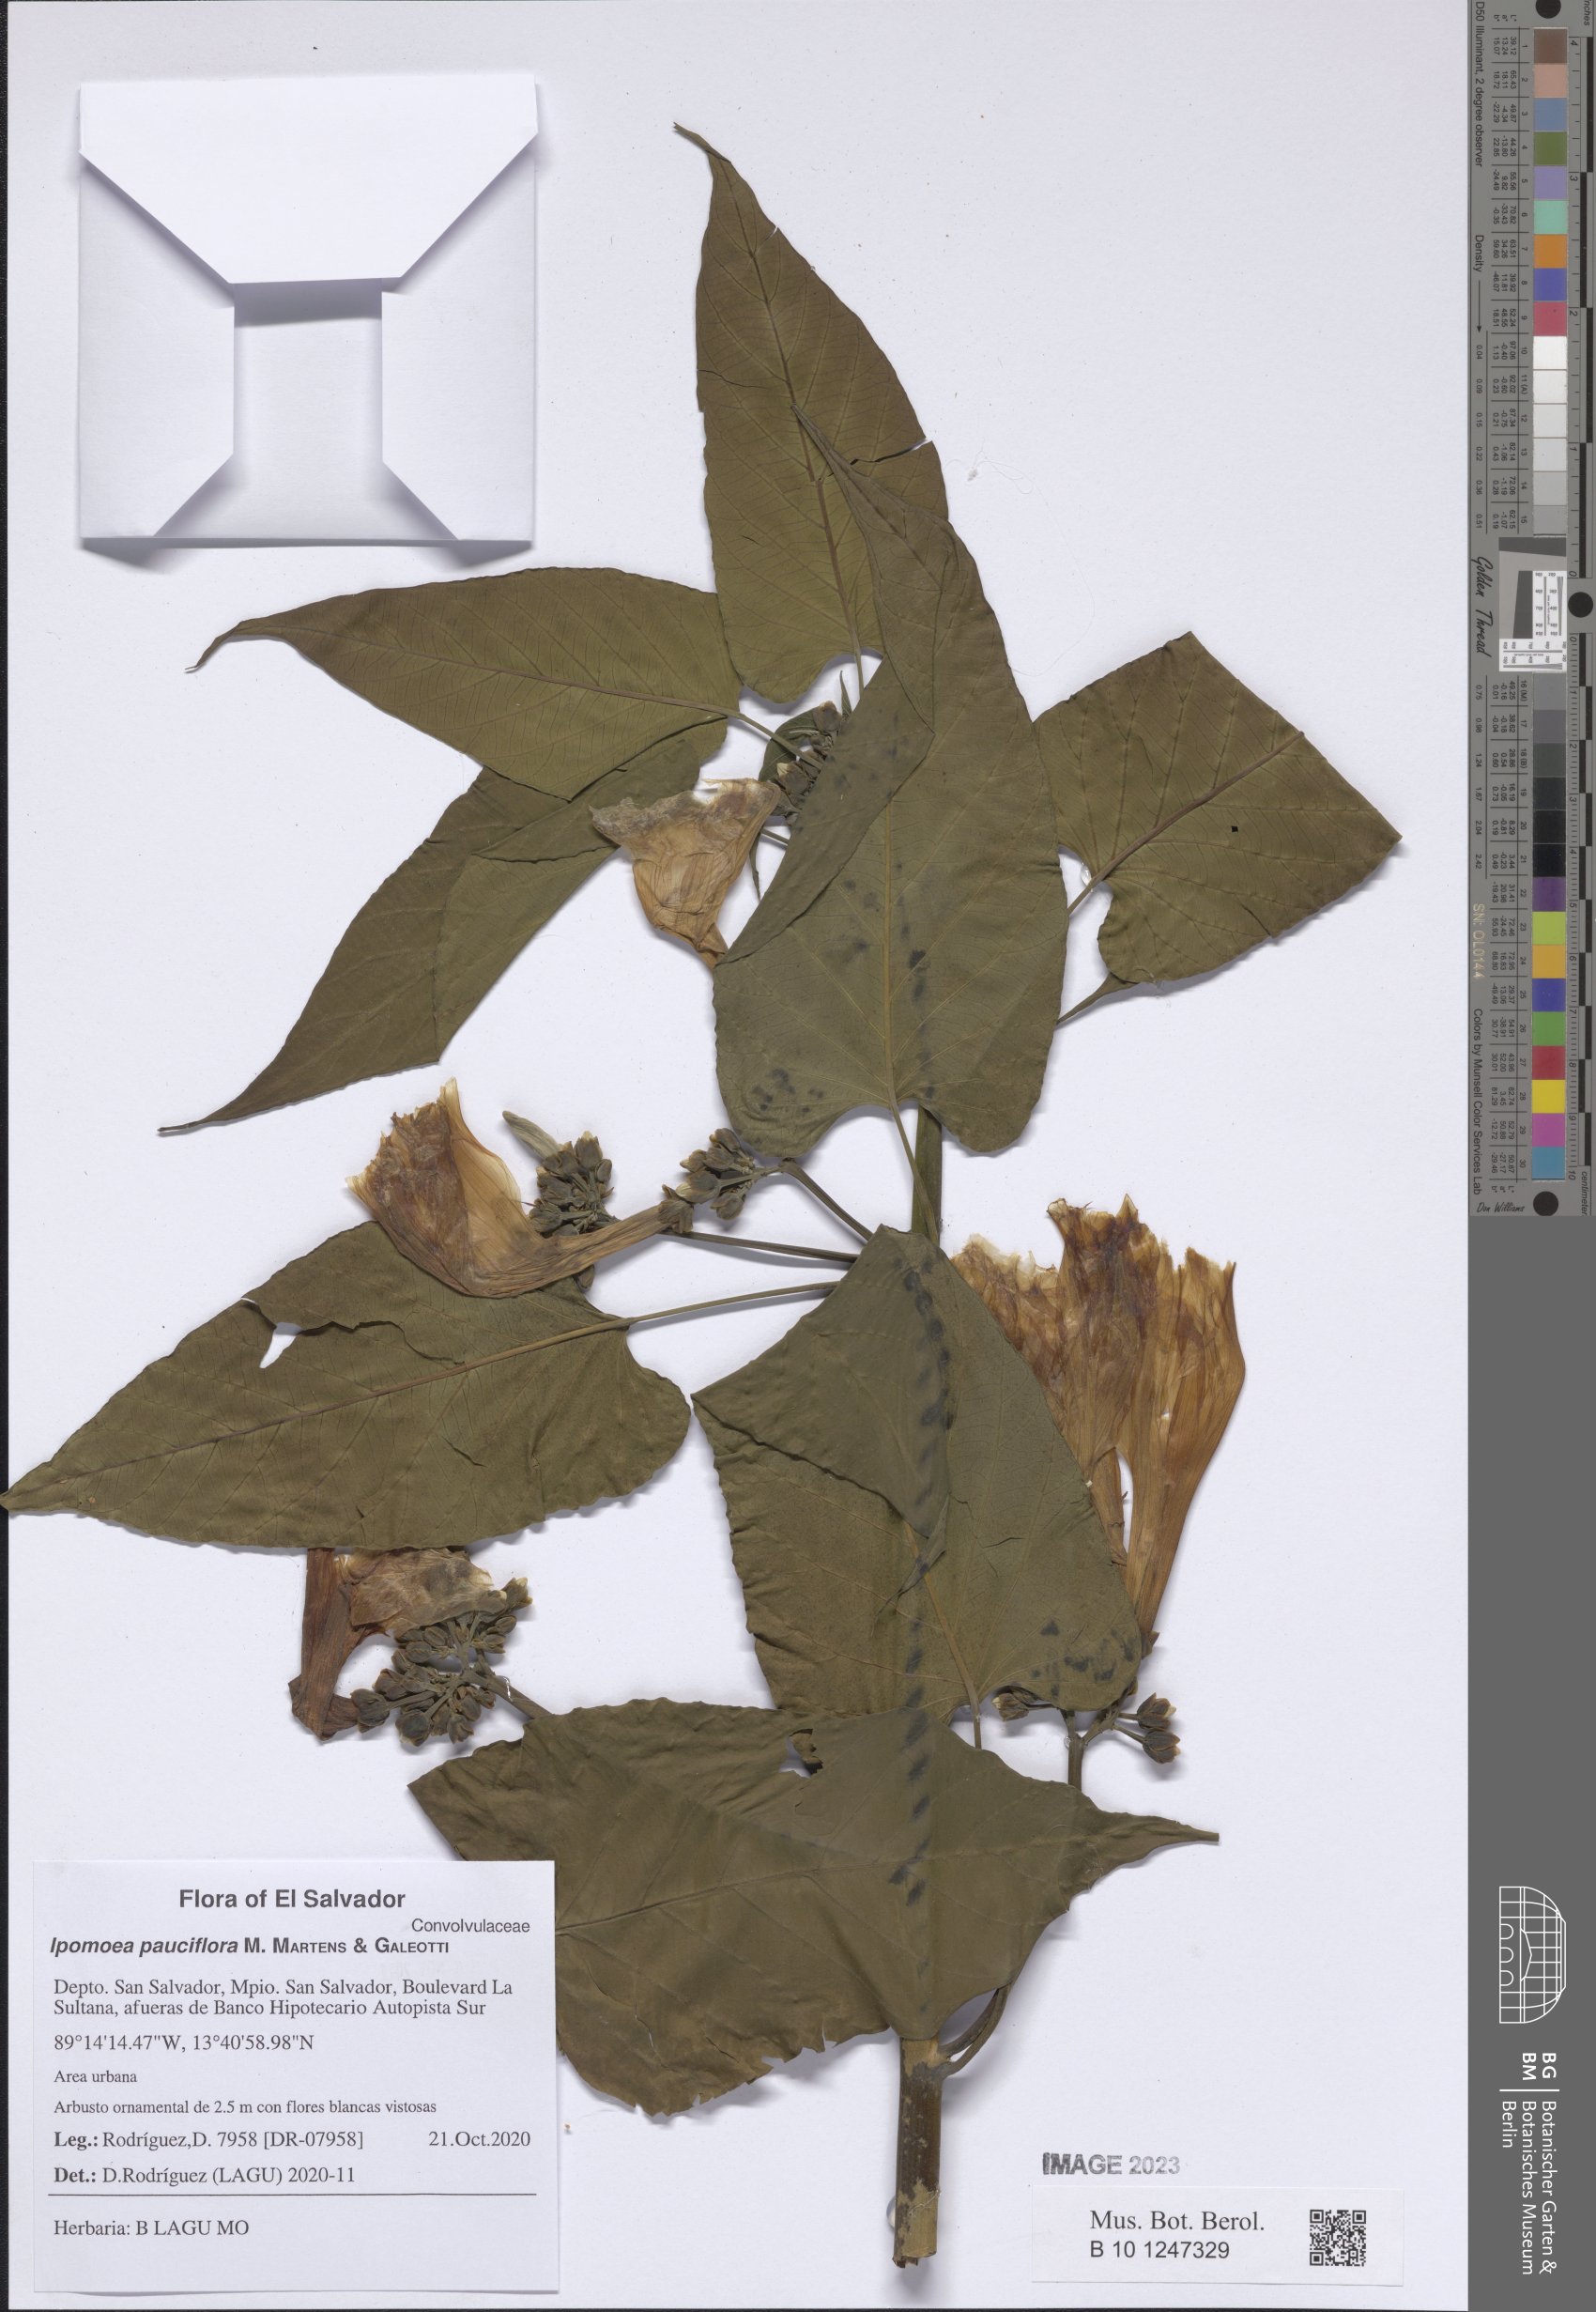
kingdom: Plantae
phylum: Tracheophyta
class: Magnoliopsida
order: Solanales
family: Convolvulaceae
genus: Ipomoea
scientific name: Ipomoea pauciflora
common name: Tree morningglory
